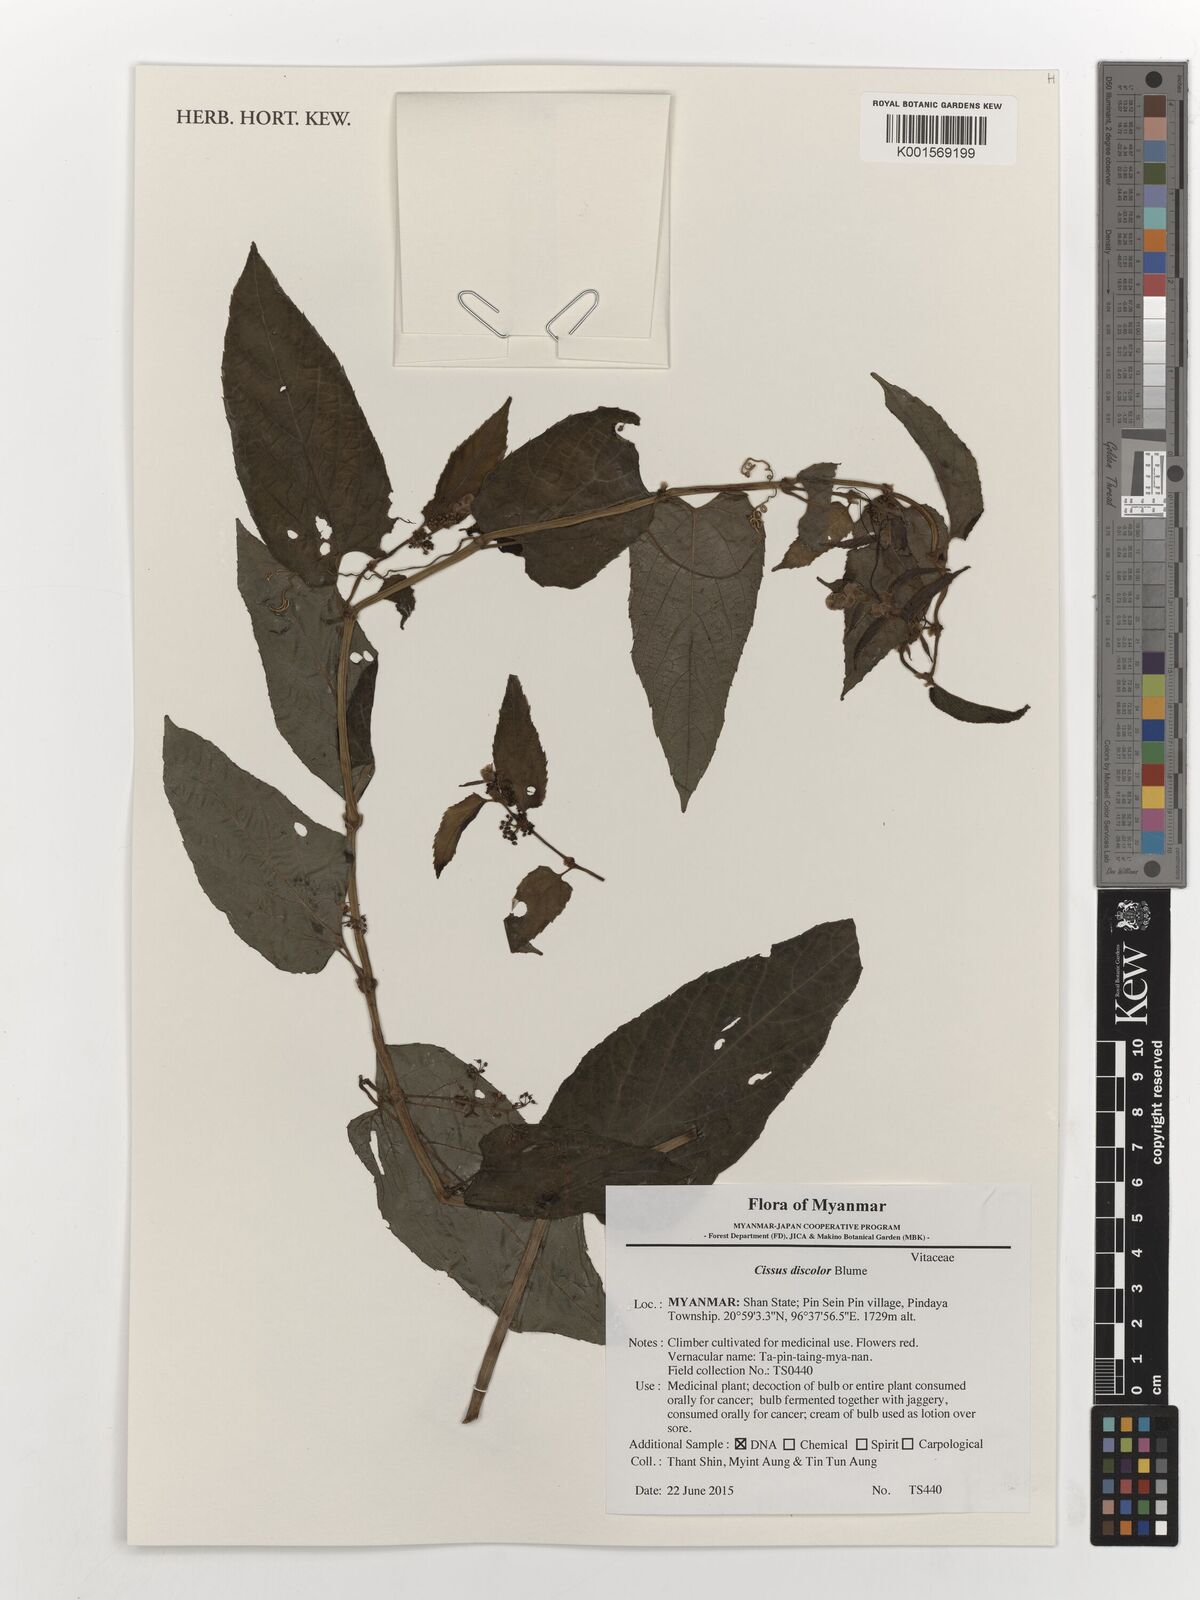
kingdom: Plantae
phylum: Tracheophyta
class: Magnoliopsida
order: Vitales
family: Vitaceae
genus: Cissus
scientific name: Cissus discolor
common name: Climbing-begonia
